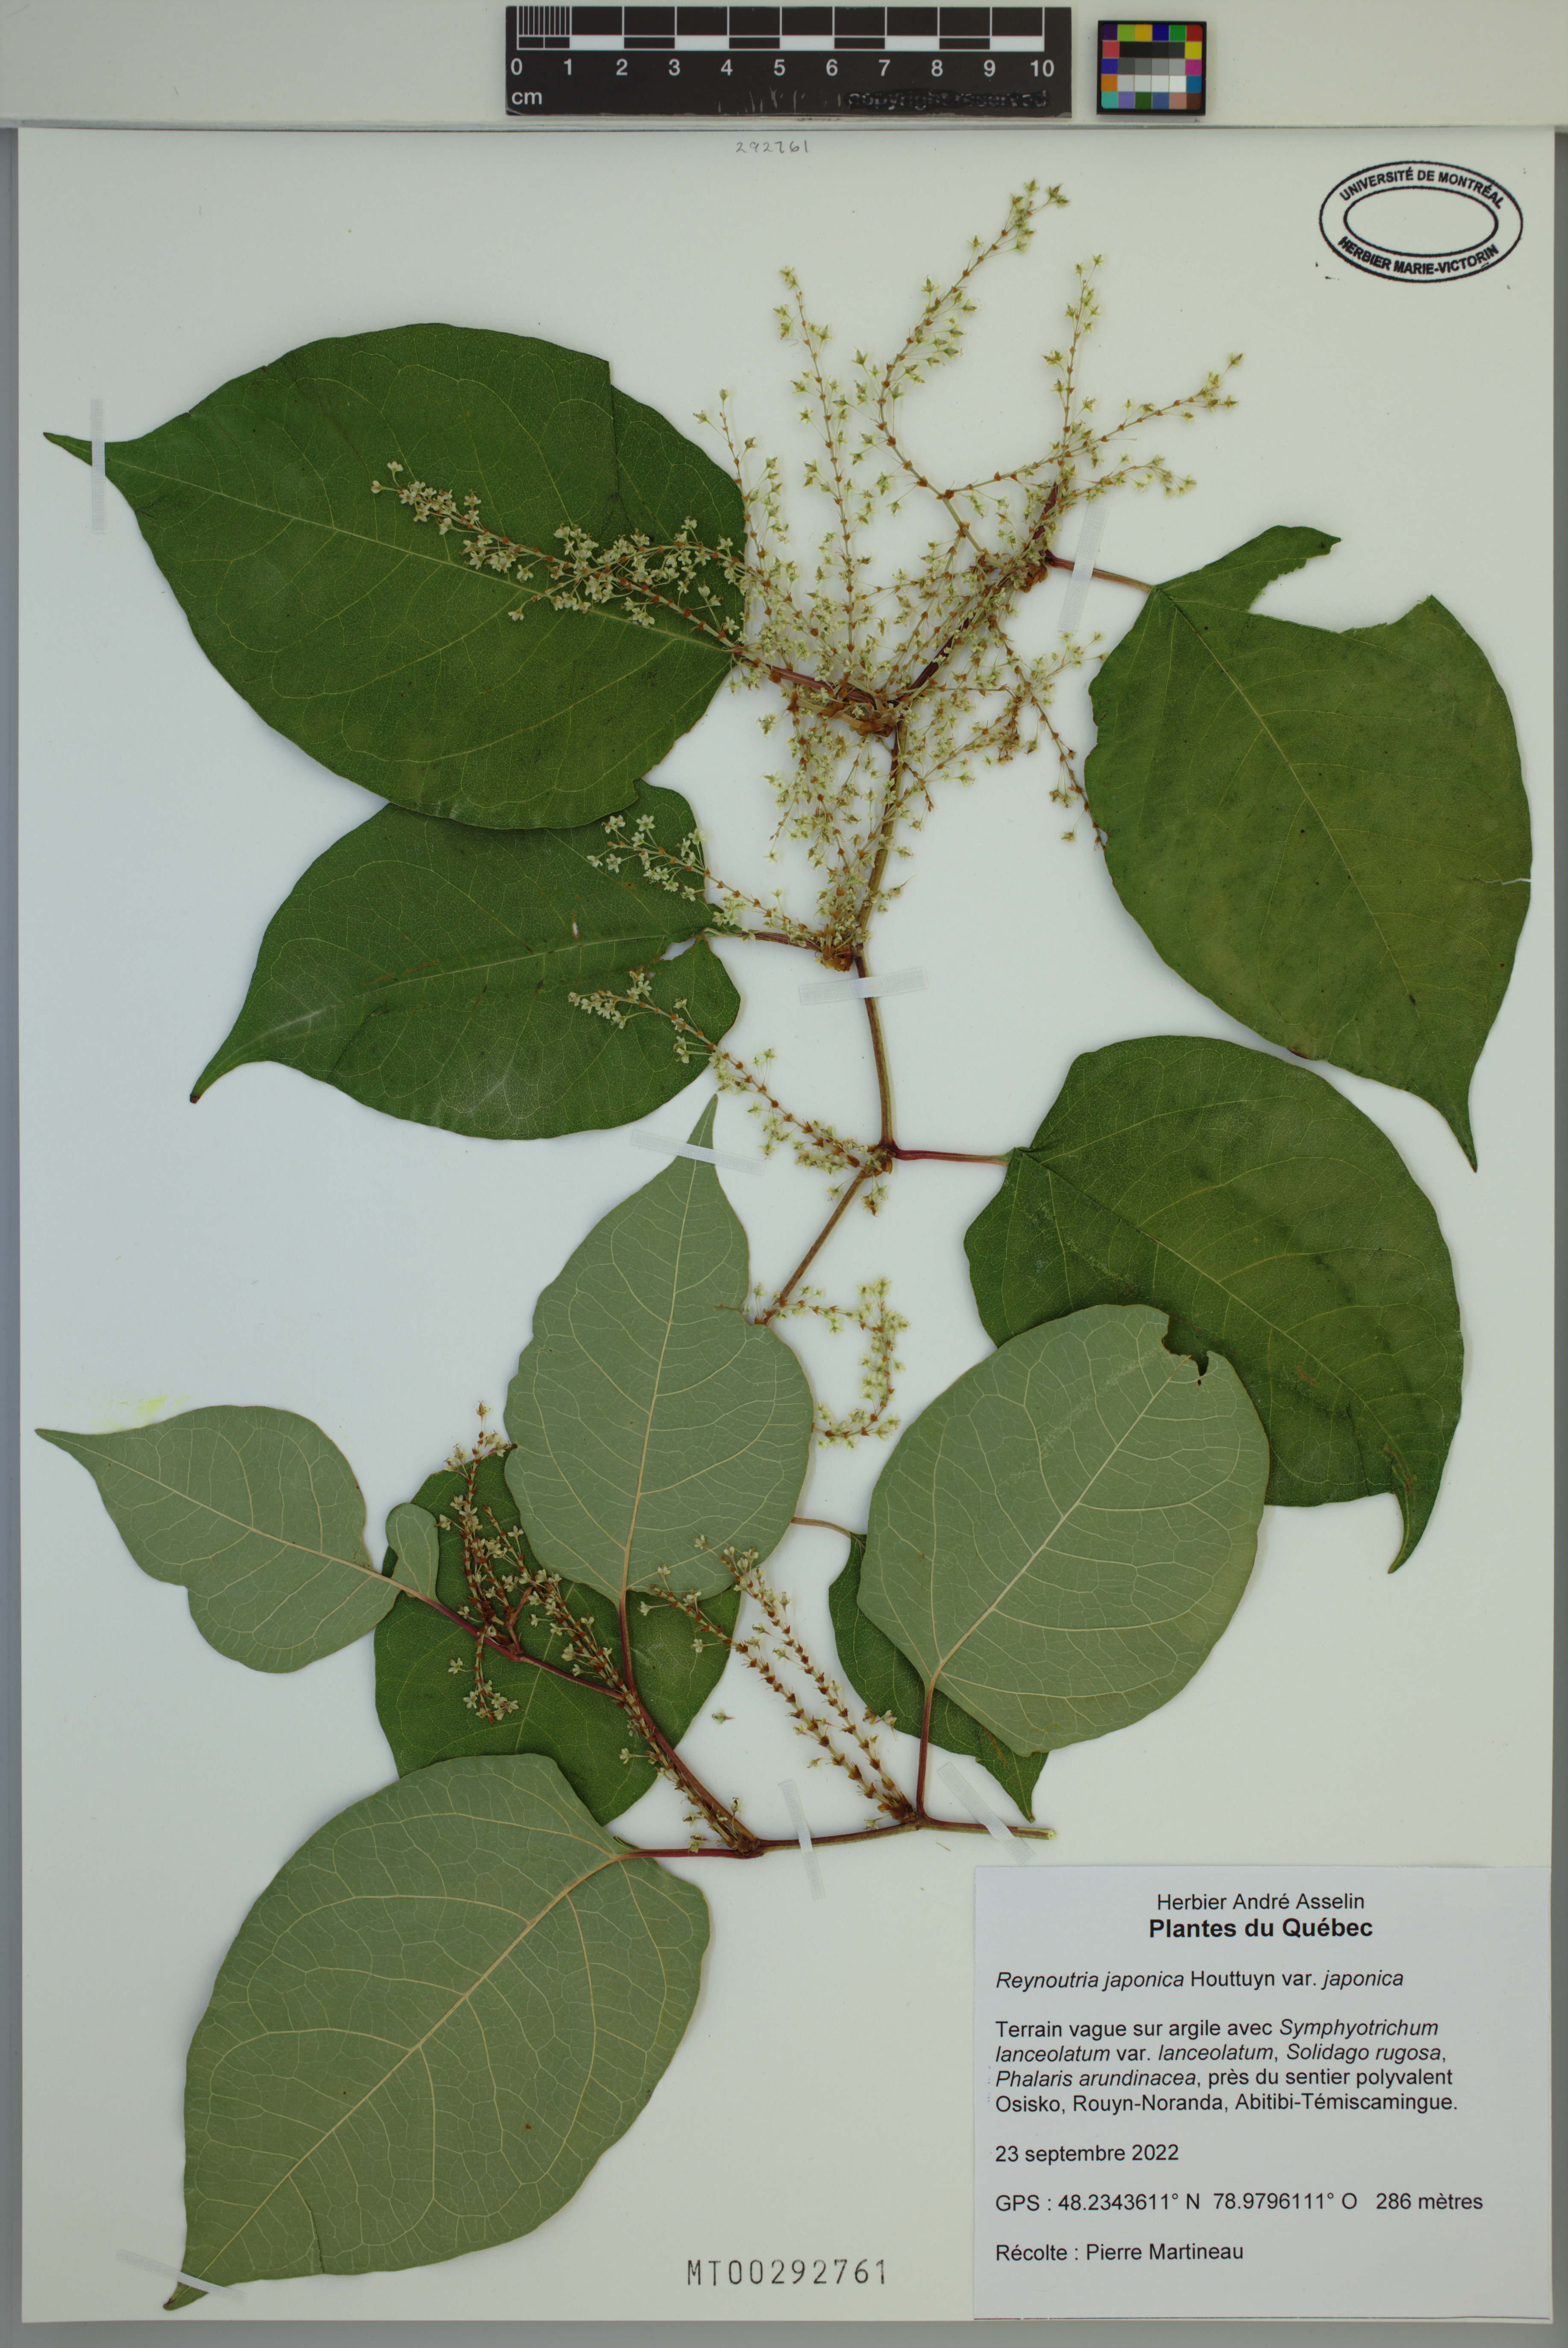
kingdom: Plantae
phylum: Tracheophyta
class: Magnoliopsida
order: Caryophyllales
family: Polygonaceae
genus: Reynoutria
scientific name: Reynoutria japonica
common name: Japanese knotweed
